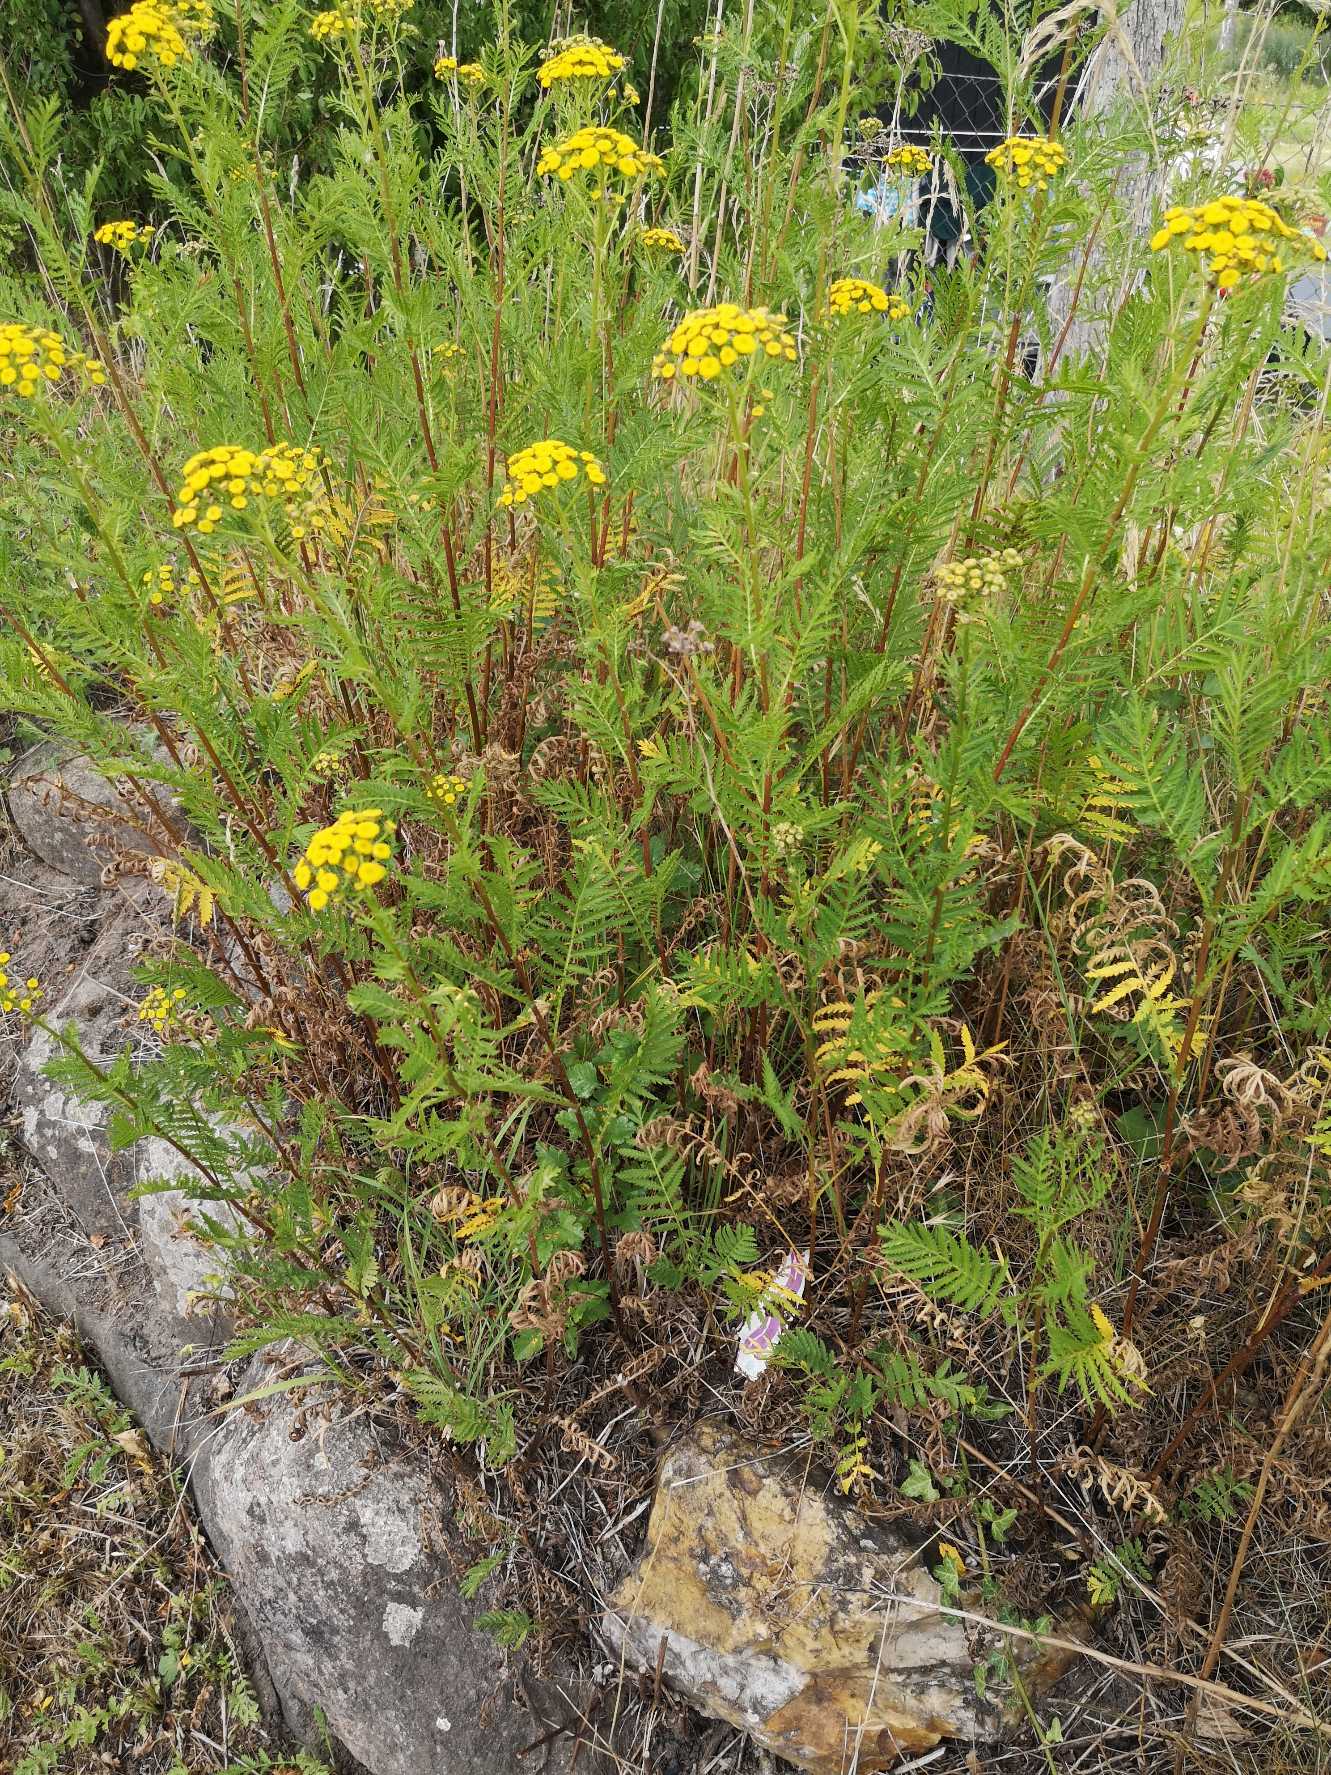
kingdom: Plantae
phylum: Tracheophyta
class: Magnoliopsida
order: Asterales
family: Asteraceae
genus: Tanacetum
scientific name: Tanacetum vulgare
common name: Rejnfan
